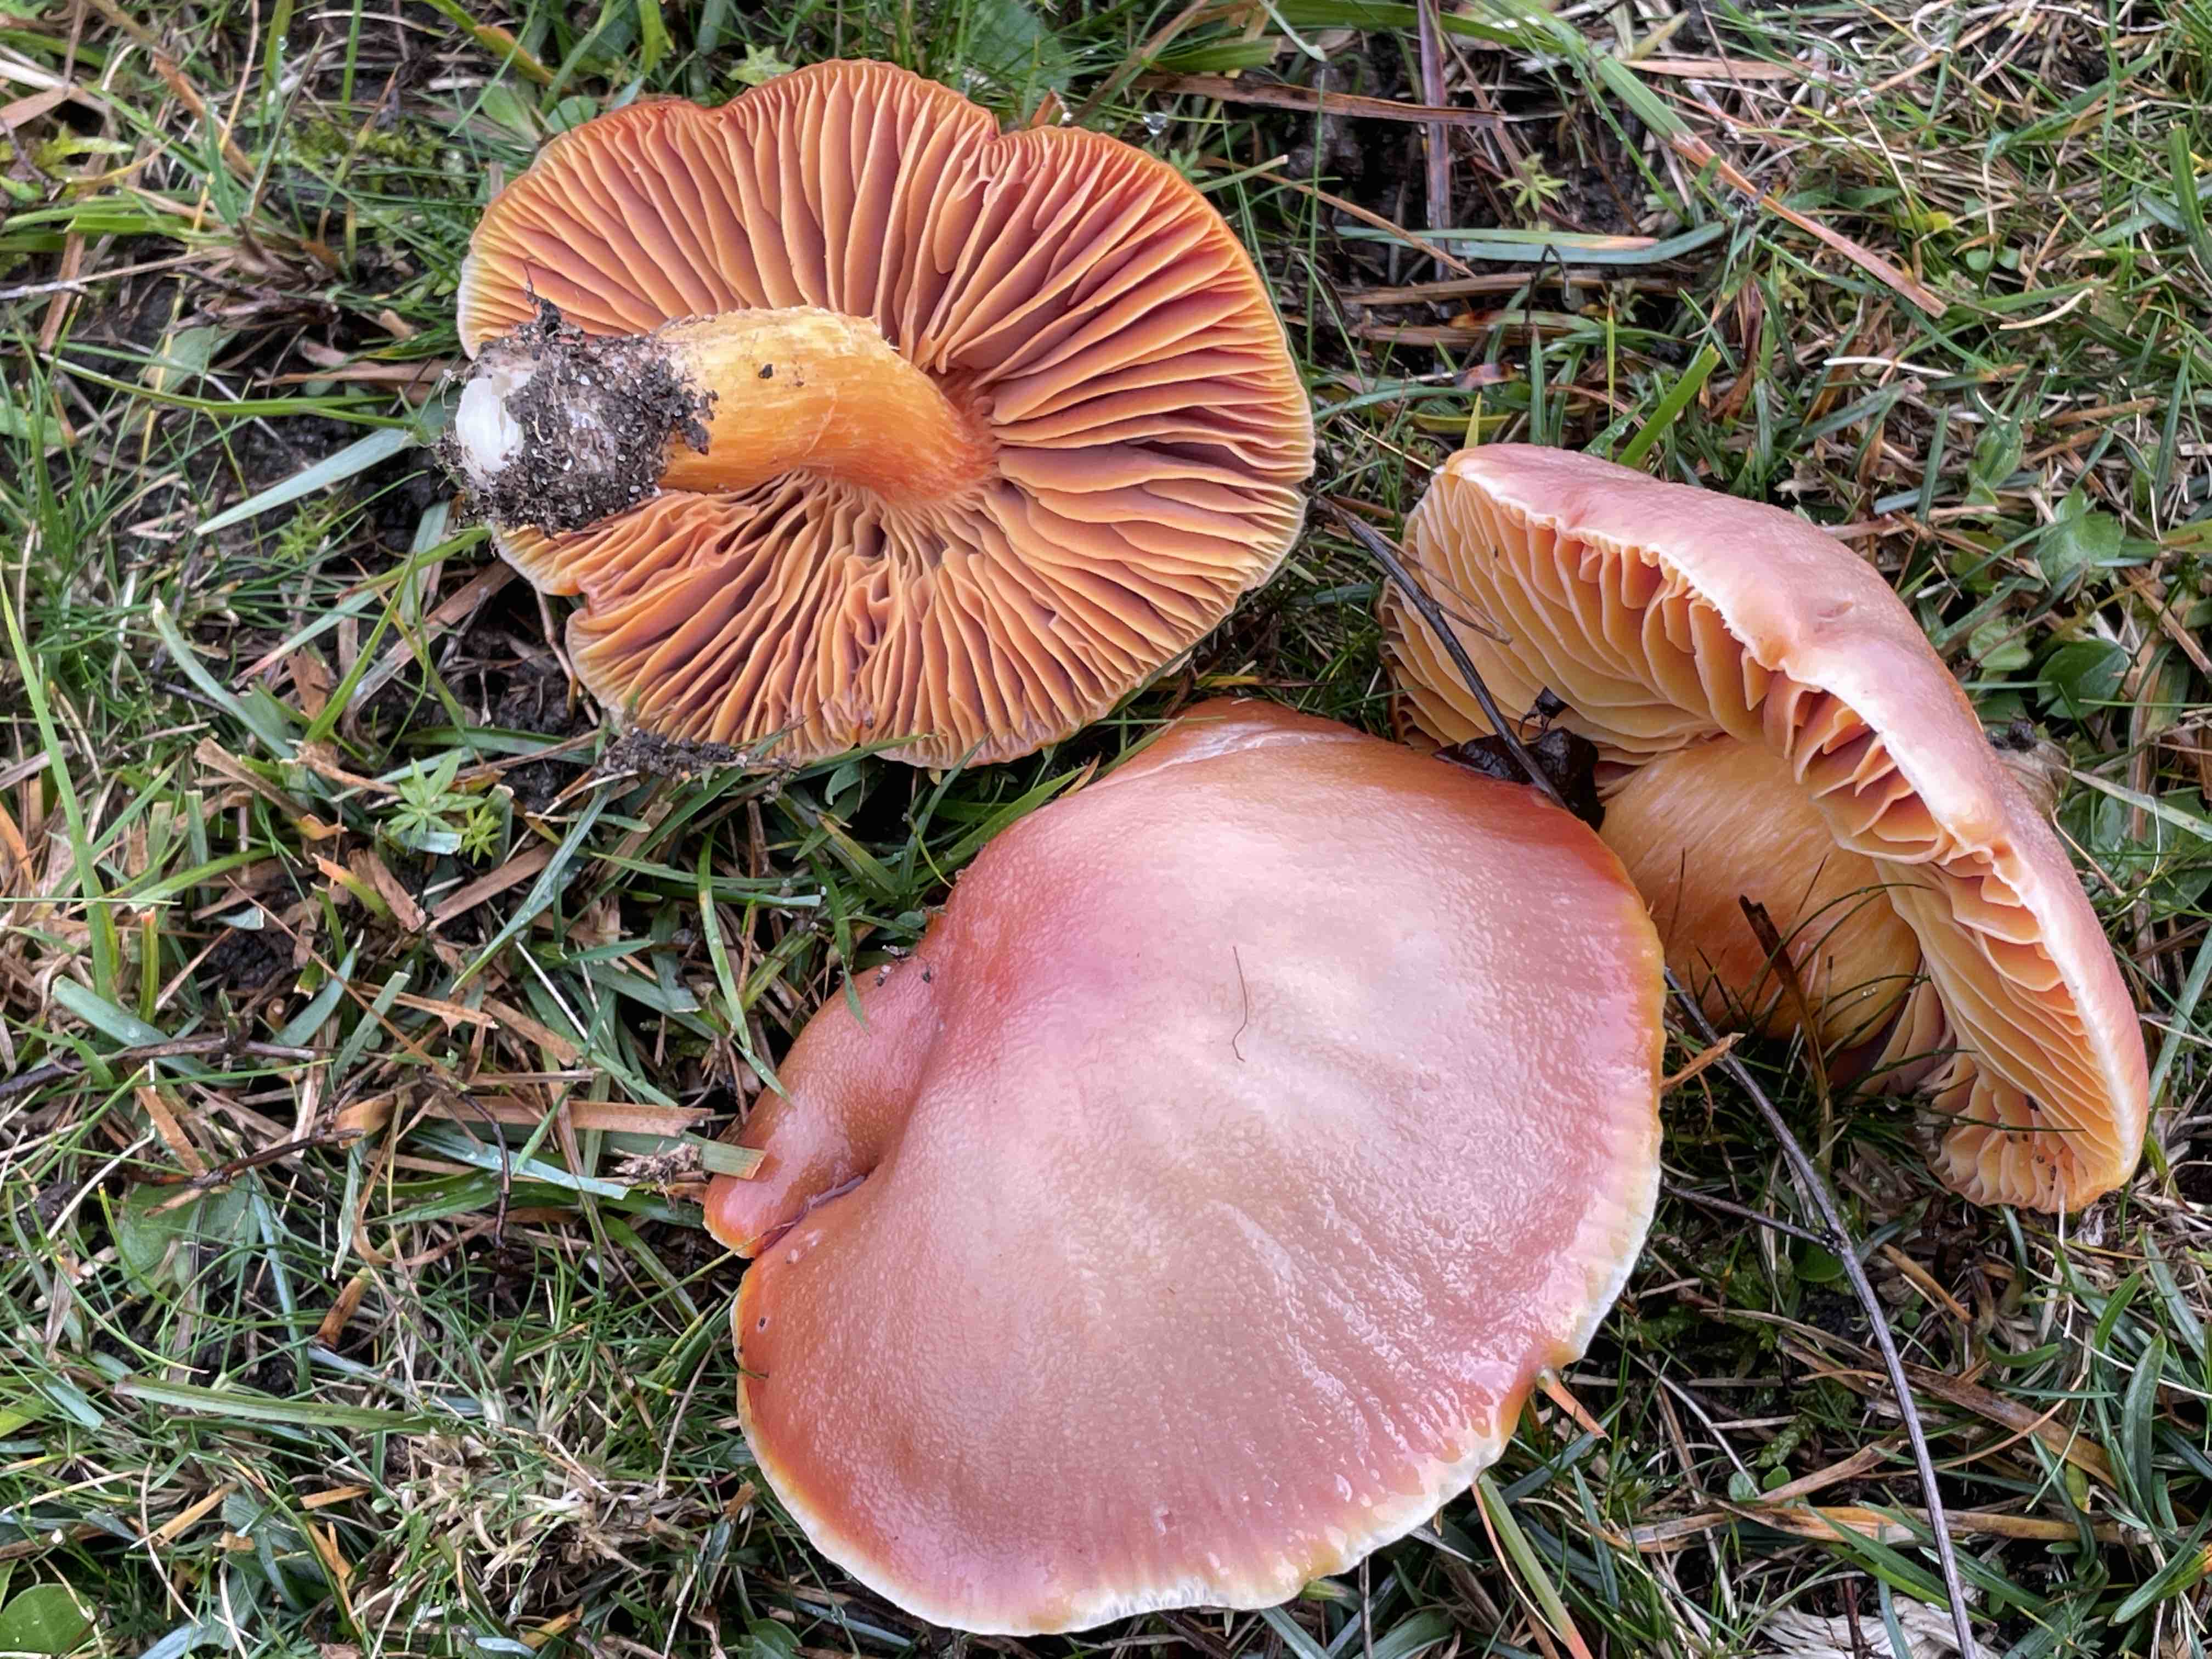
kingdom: Fungi
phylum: Basidiomycota
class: Agaricomycetes
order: Agaricales
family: Hygrophoraceae
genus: Hygrocybe
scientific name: Hygrocybe punicea
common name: skarlagen-vokshat
